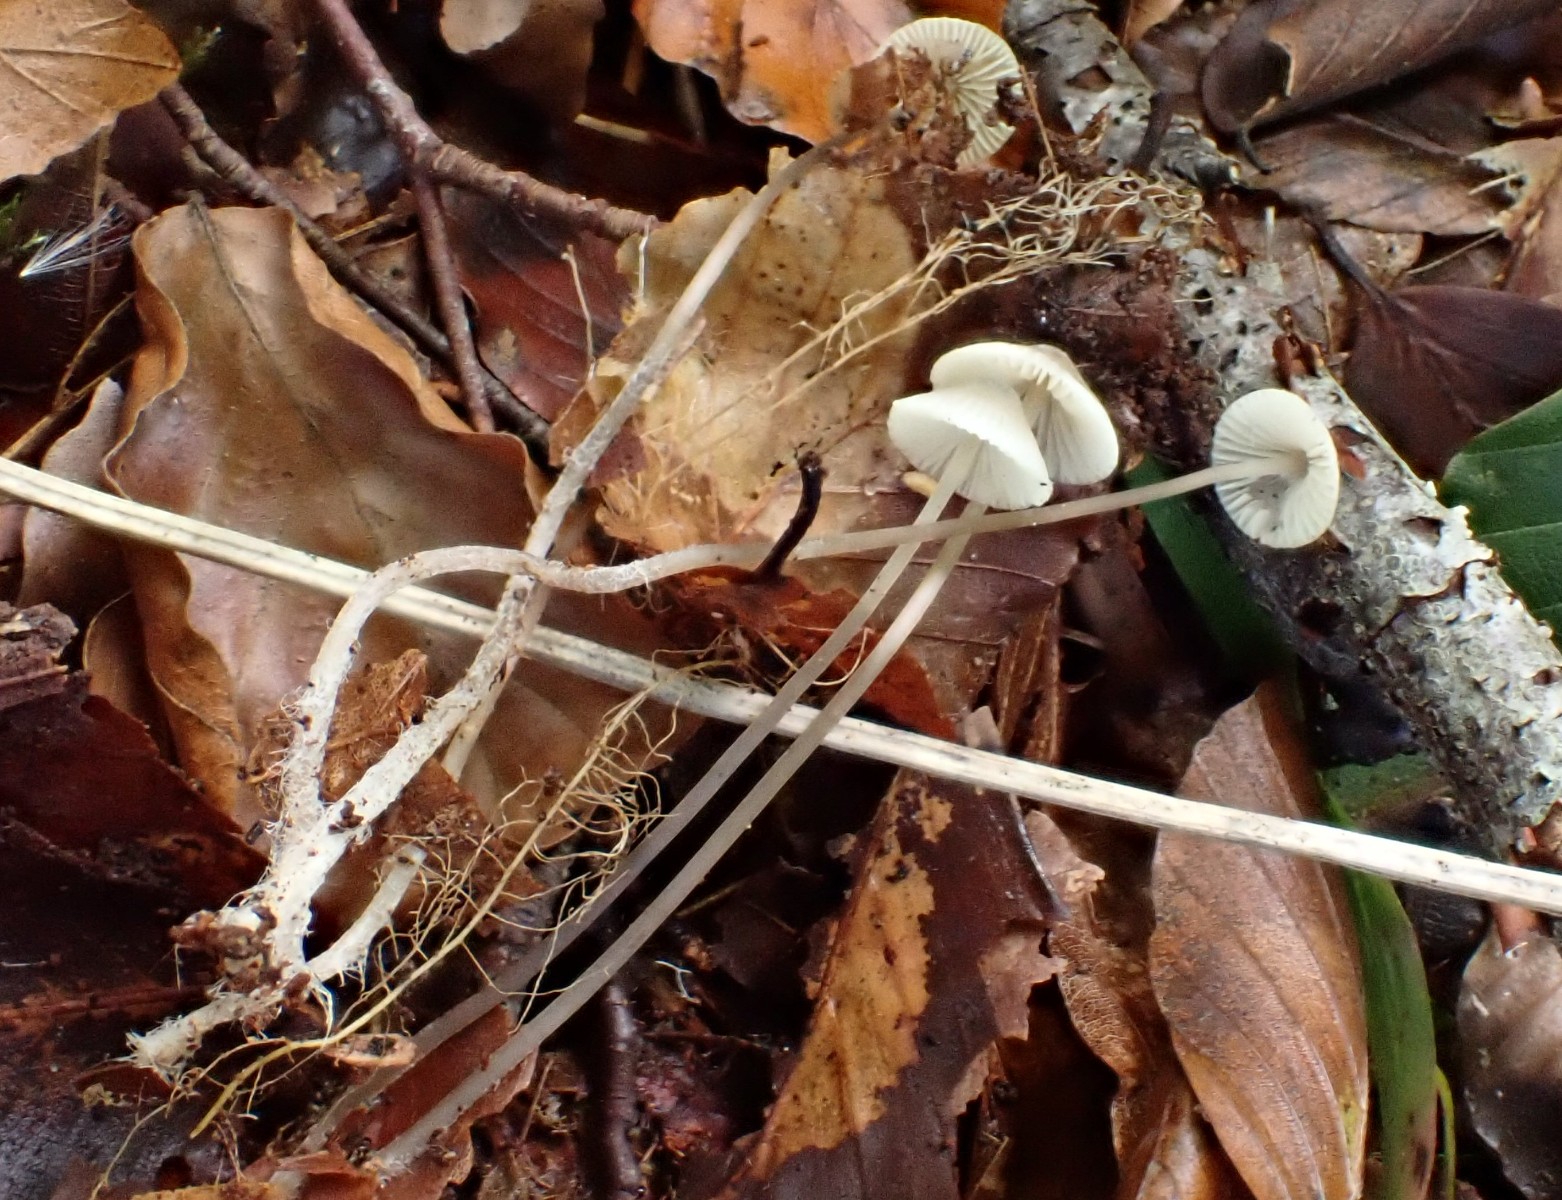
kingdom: Fungi
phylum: Basidiomycota
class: Agaricomycetes
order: Agaricales
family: Mycenaceae
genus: Mycena
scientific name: Mycena flavescens
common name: grågul huesvamp
